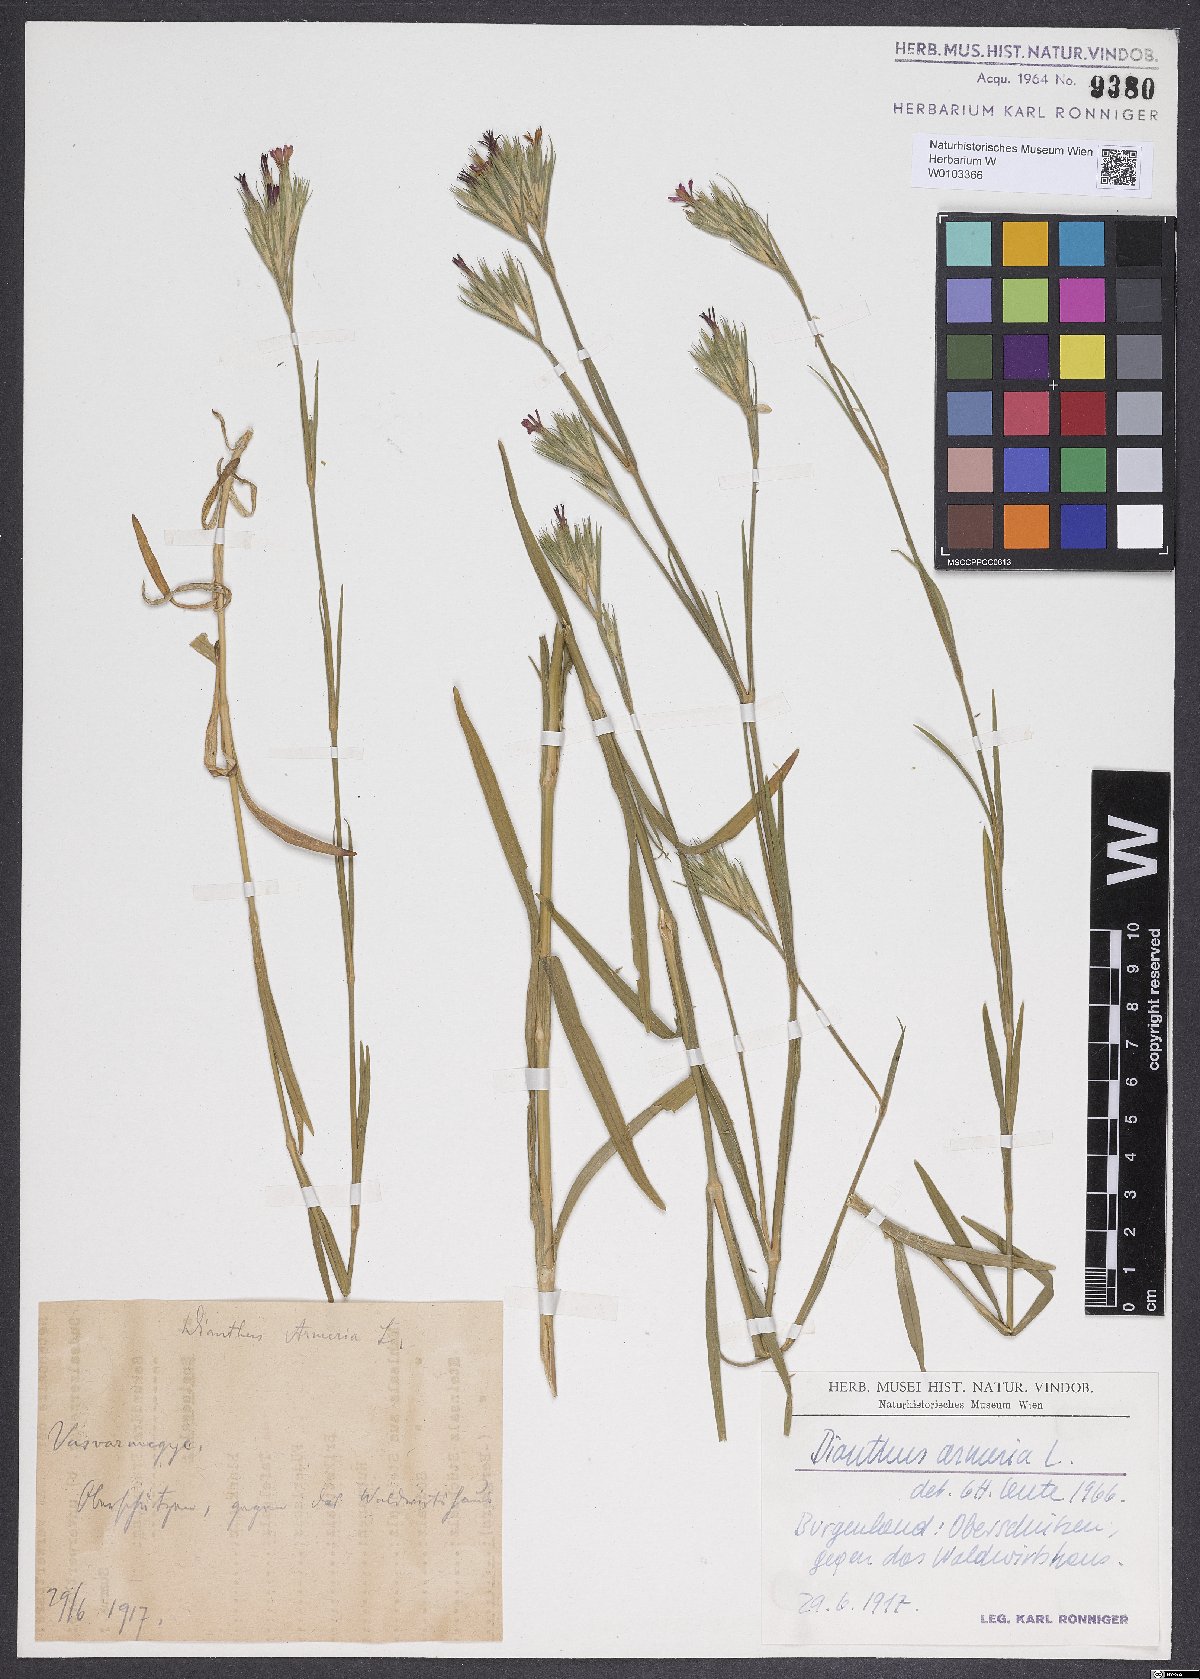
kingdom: Plantae
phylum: Tracheophyta
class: Magnoliopsida
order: Caryophyllales
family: Caryophyllaceae
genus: Dianthus
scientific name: Dianthus armeria
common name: Deptford pink
